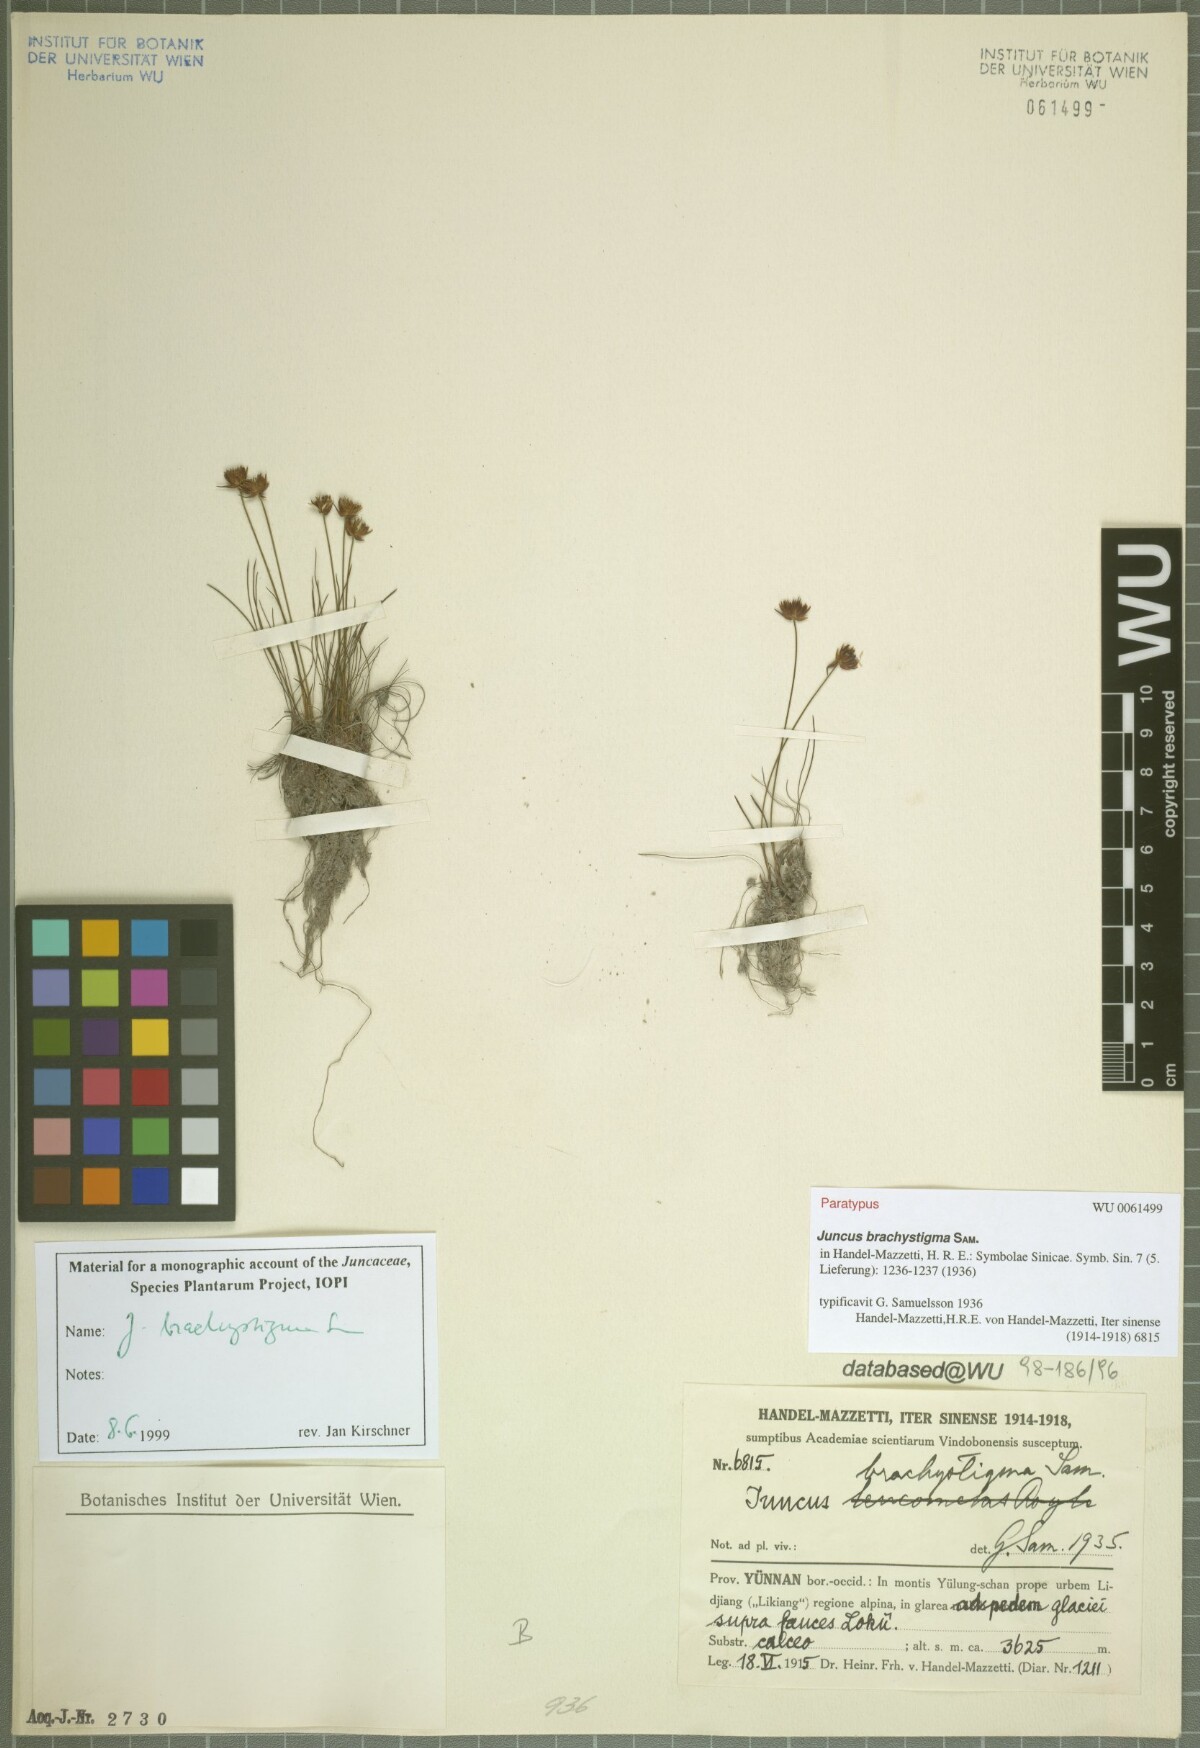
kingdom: Plantae
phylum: Tracheophyta
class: Liliopsida
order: Poales
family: Juncaceae
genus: Juncus
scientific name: Juncus brachystigma
